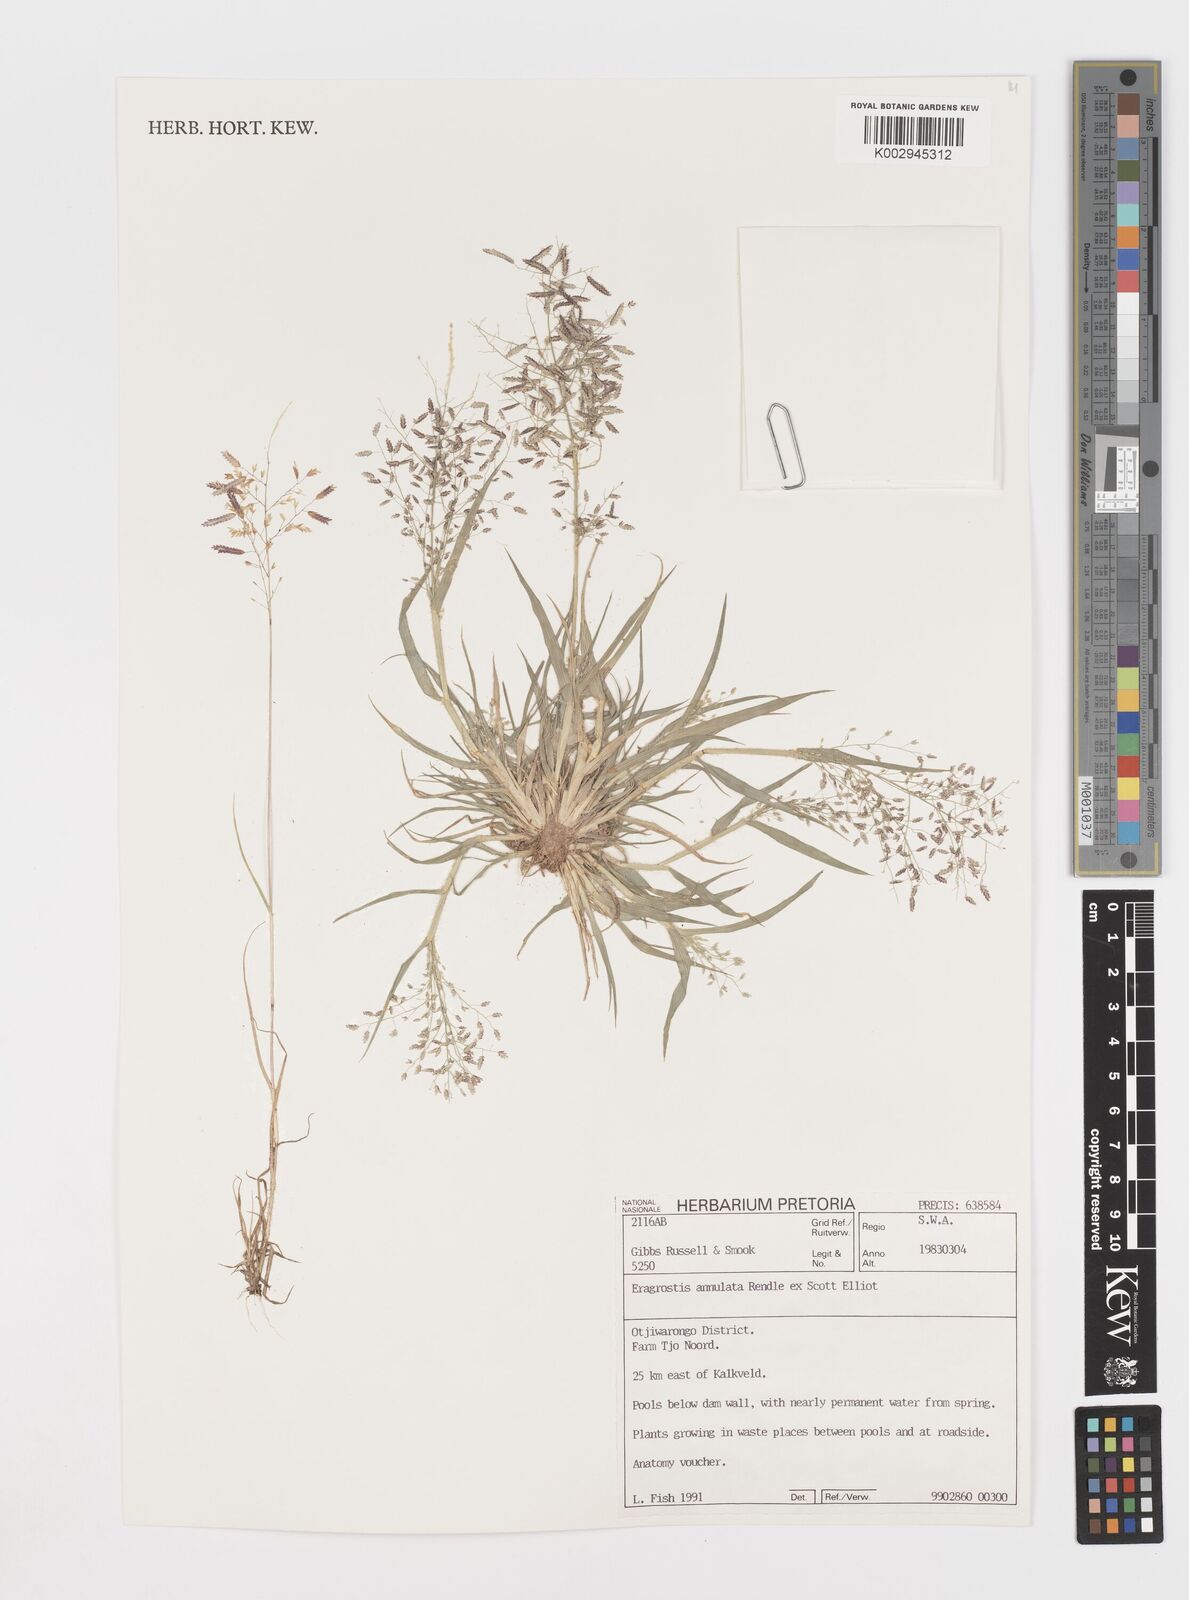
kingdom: Plantae
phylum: Tracheophyta
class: Liliopsida
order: Poales
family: Poaceae
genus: Eragrostis
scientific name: Eragrostis annulata
